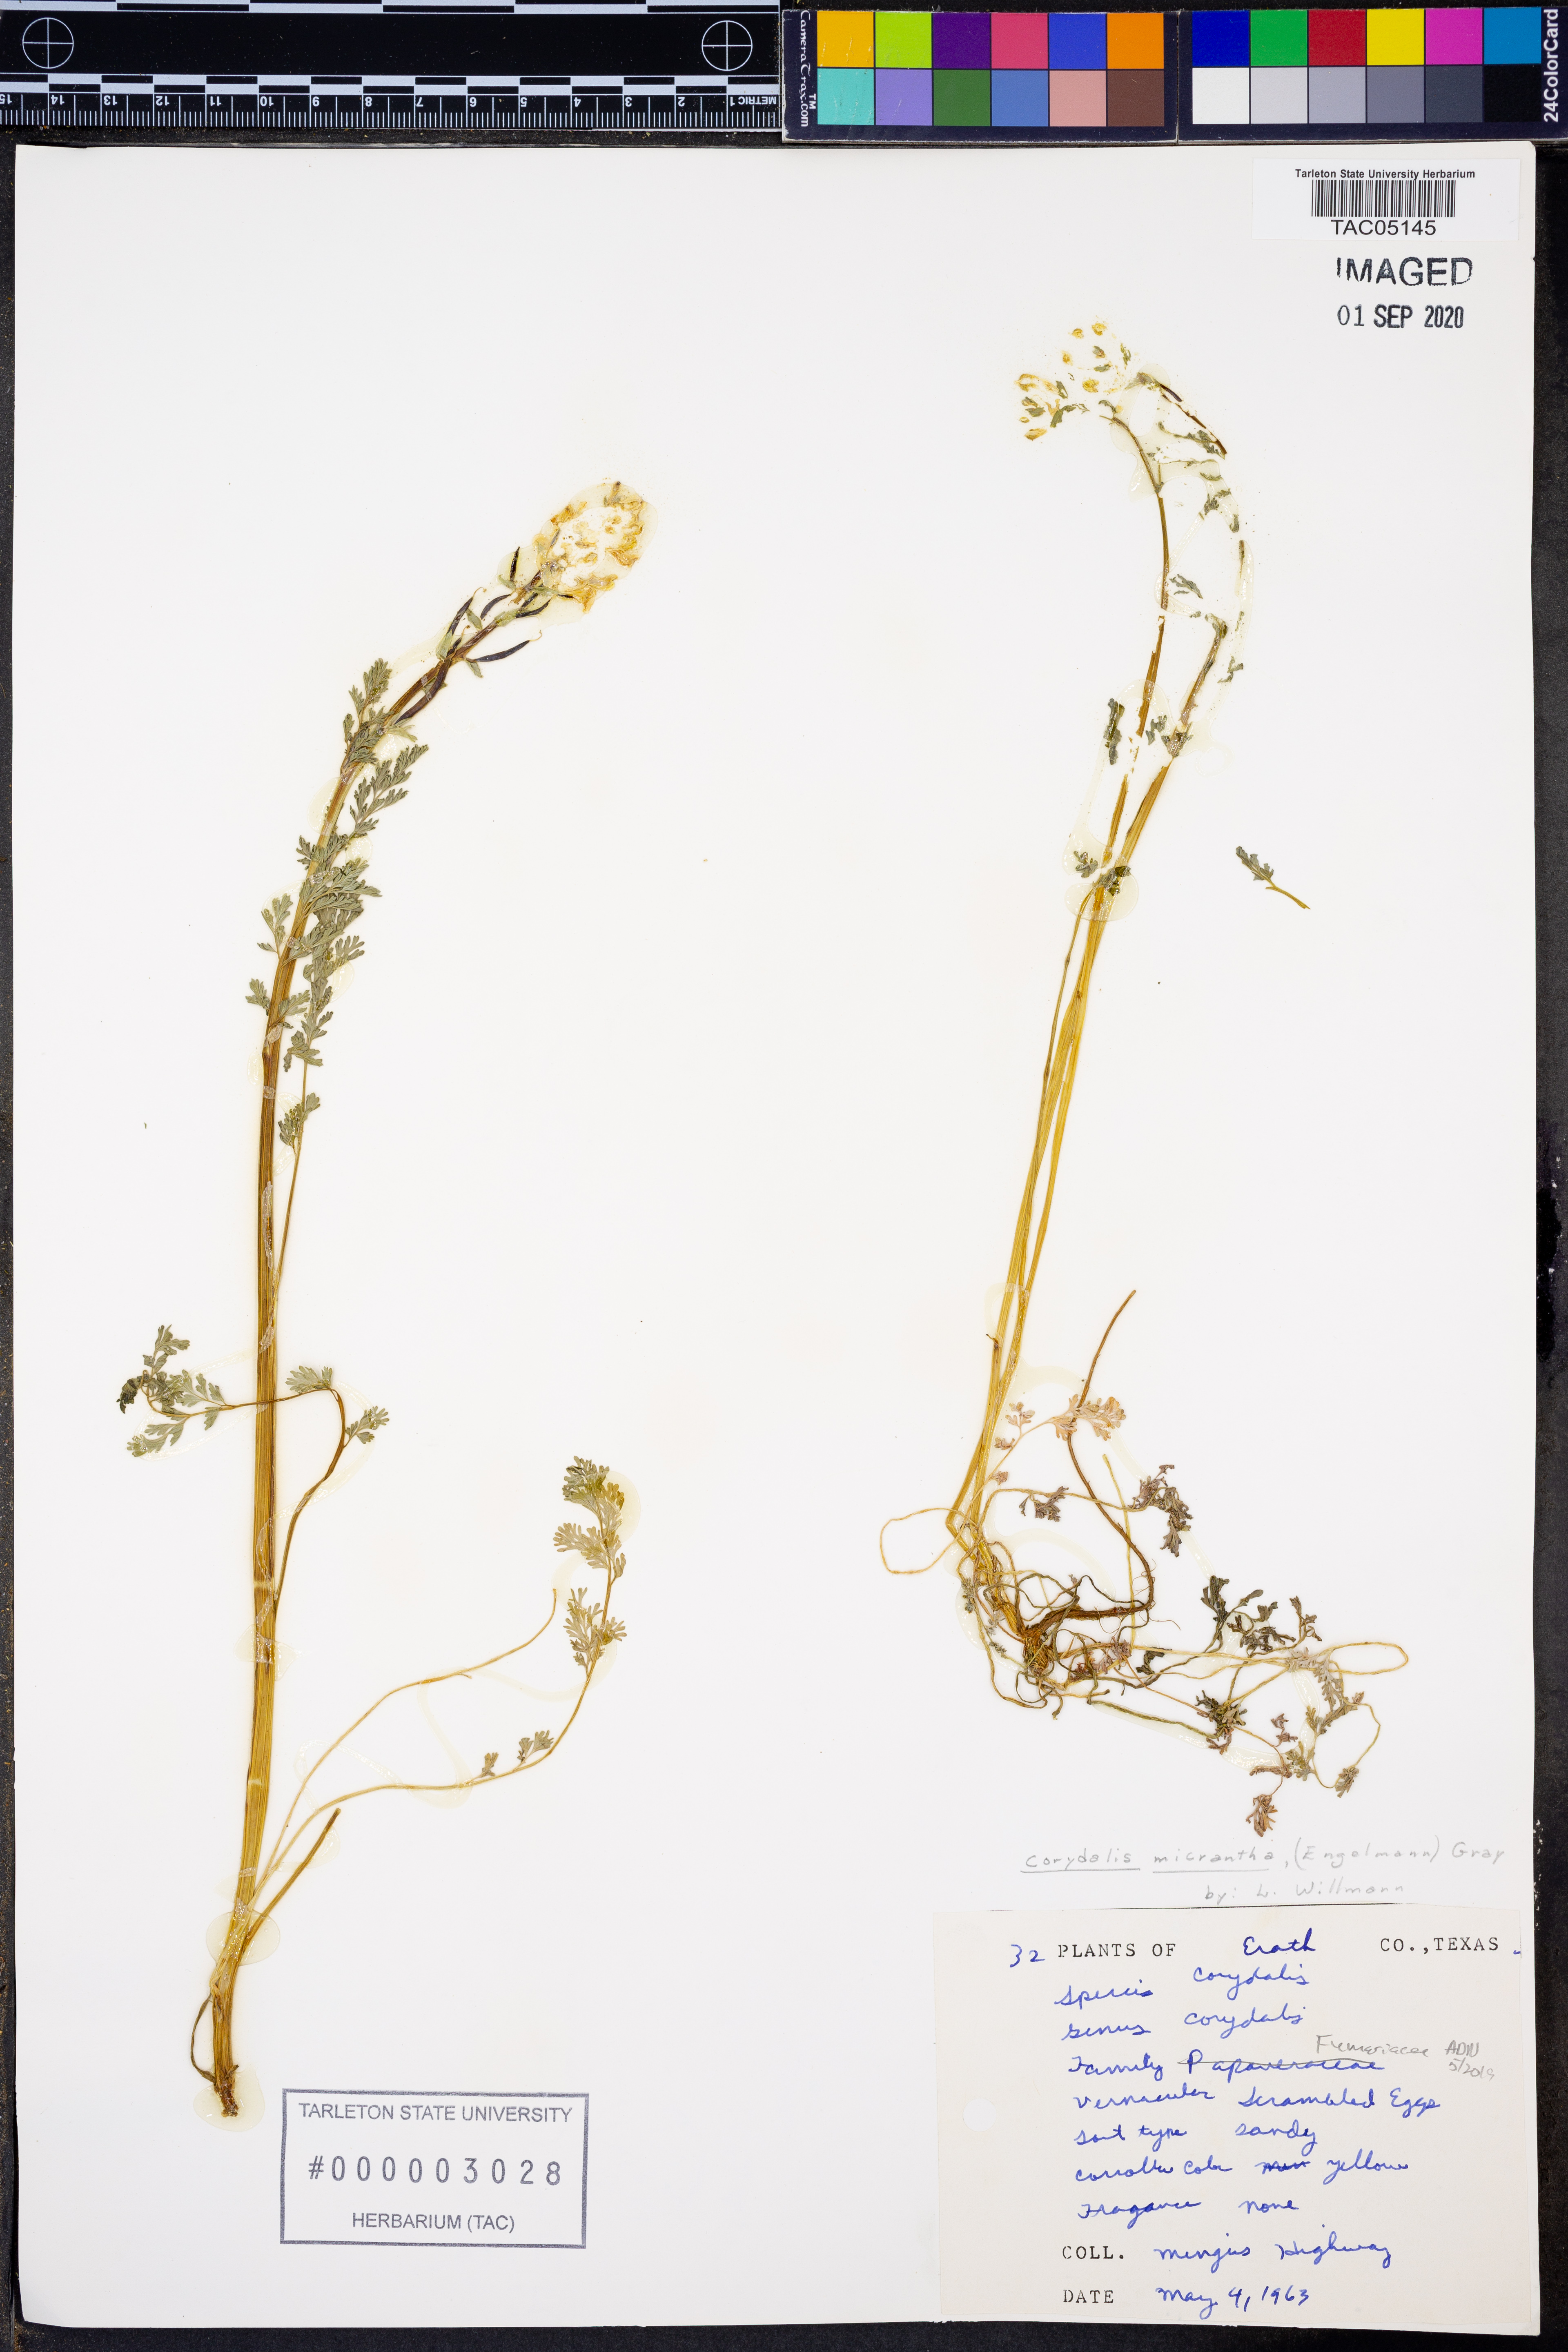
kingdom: Plantae
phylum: Tracheophyta
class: Magnoliopsida
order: Ranunculales
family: Papaveraceae
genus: Corydalis
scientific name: Corydalis micrantha
